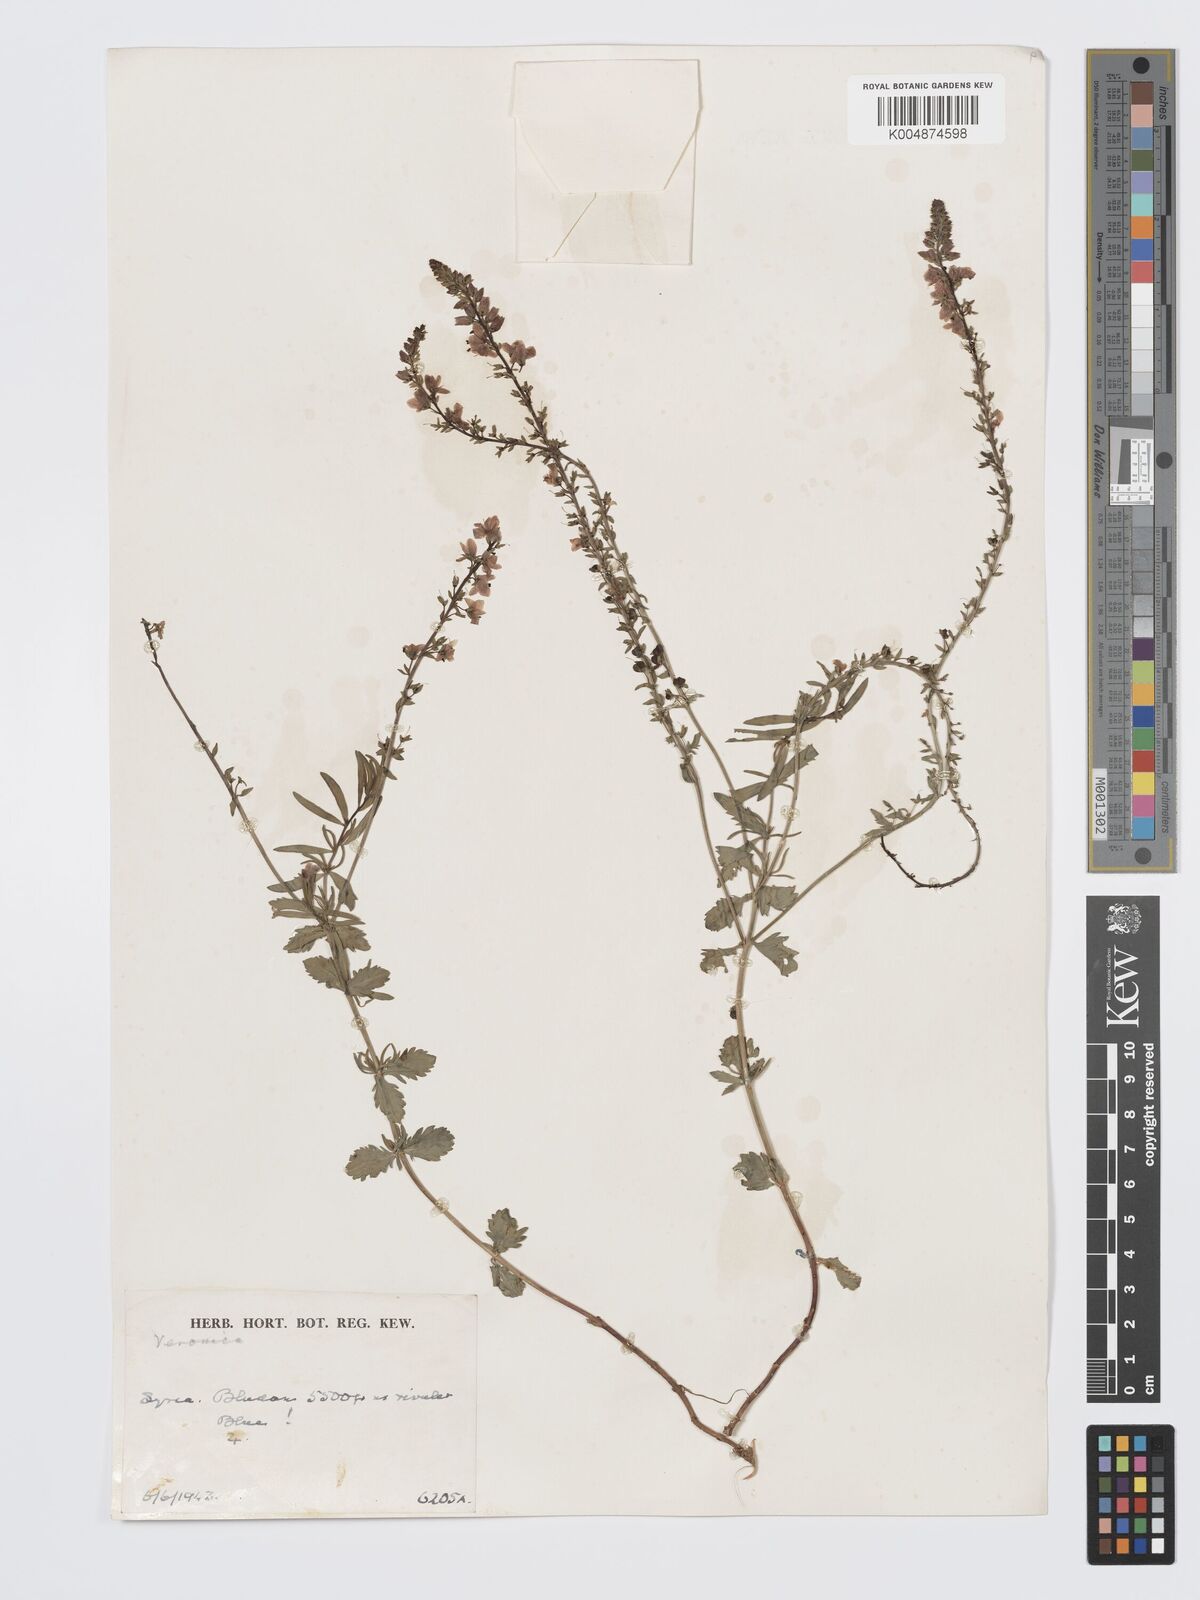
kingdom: Plantae
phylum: Tracheophyta
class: Magnoliopsida
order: Lamiales
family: Plantaginaceae
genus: Veronica
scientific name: Veronica
